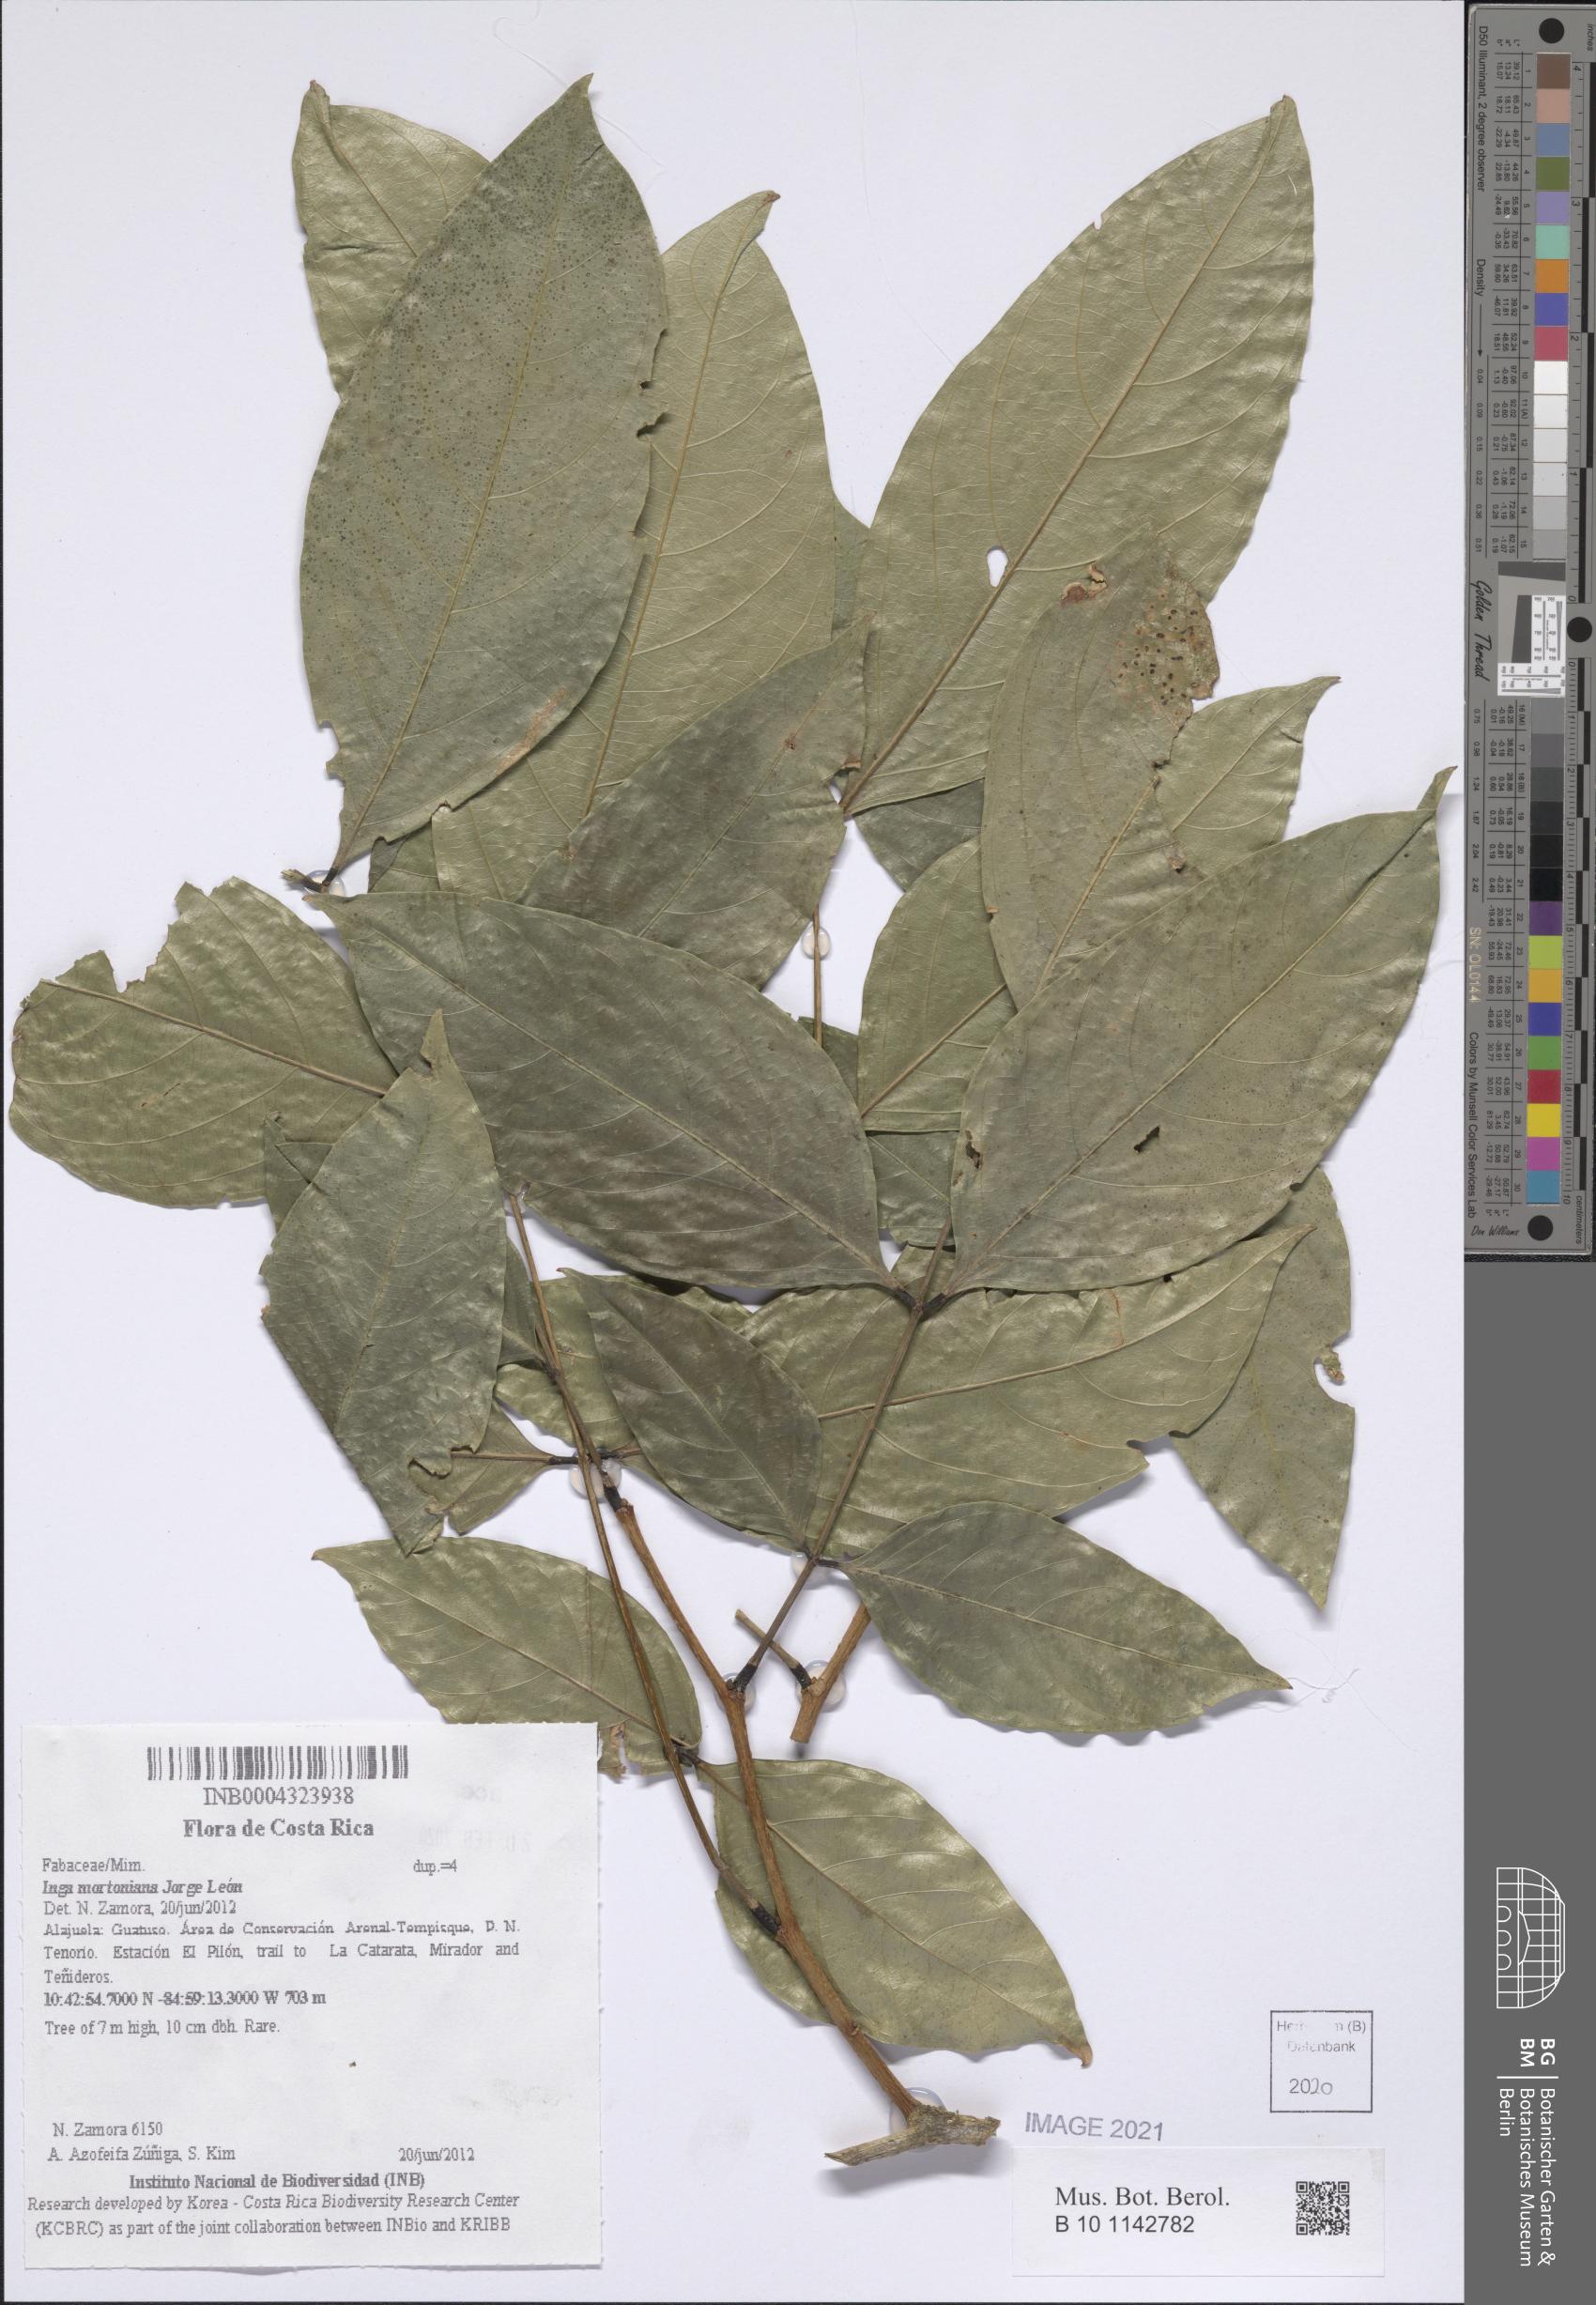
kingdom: Plantae
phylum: Tracheophyta
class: Magnoliopsida
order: Fabales
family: Fabaceae
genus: Inga
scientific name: Inga mortoniana
